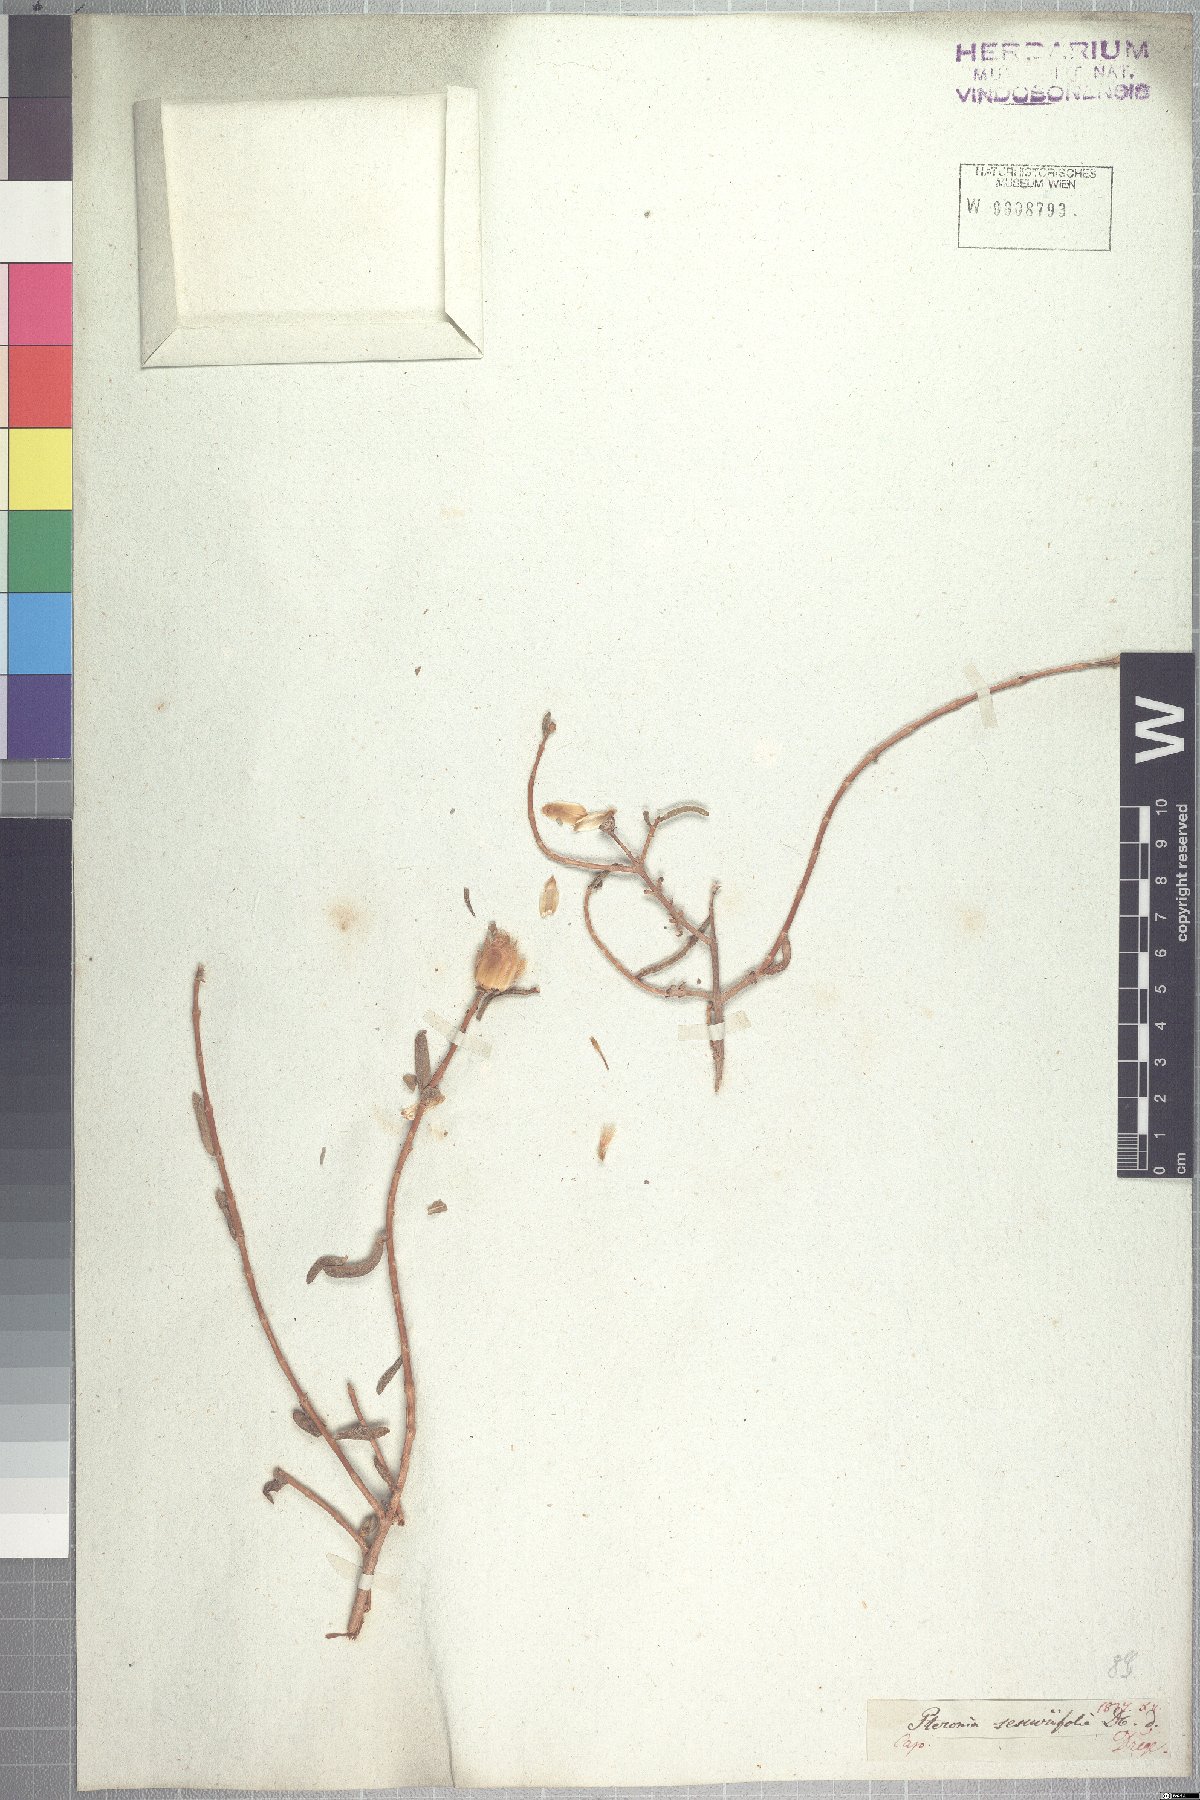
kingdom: Plantae
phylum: Tracheophyta
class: Magnoliopsida
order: Asterales
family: Asteraceae
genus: Pteronia
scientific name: Pteronia glabrata
